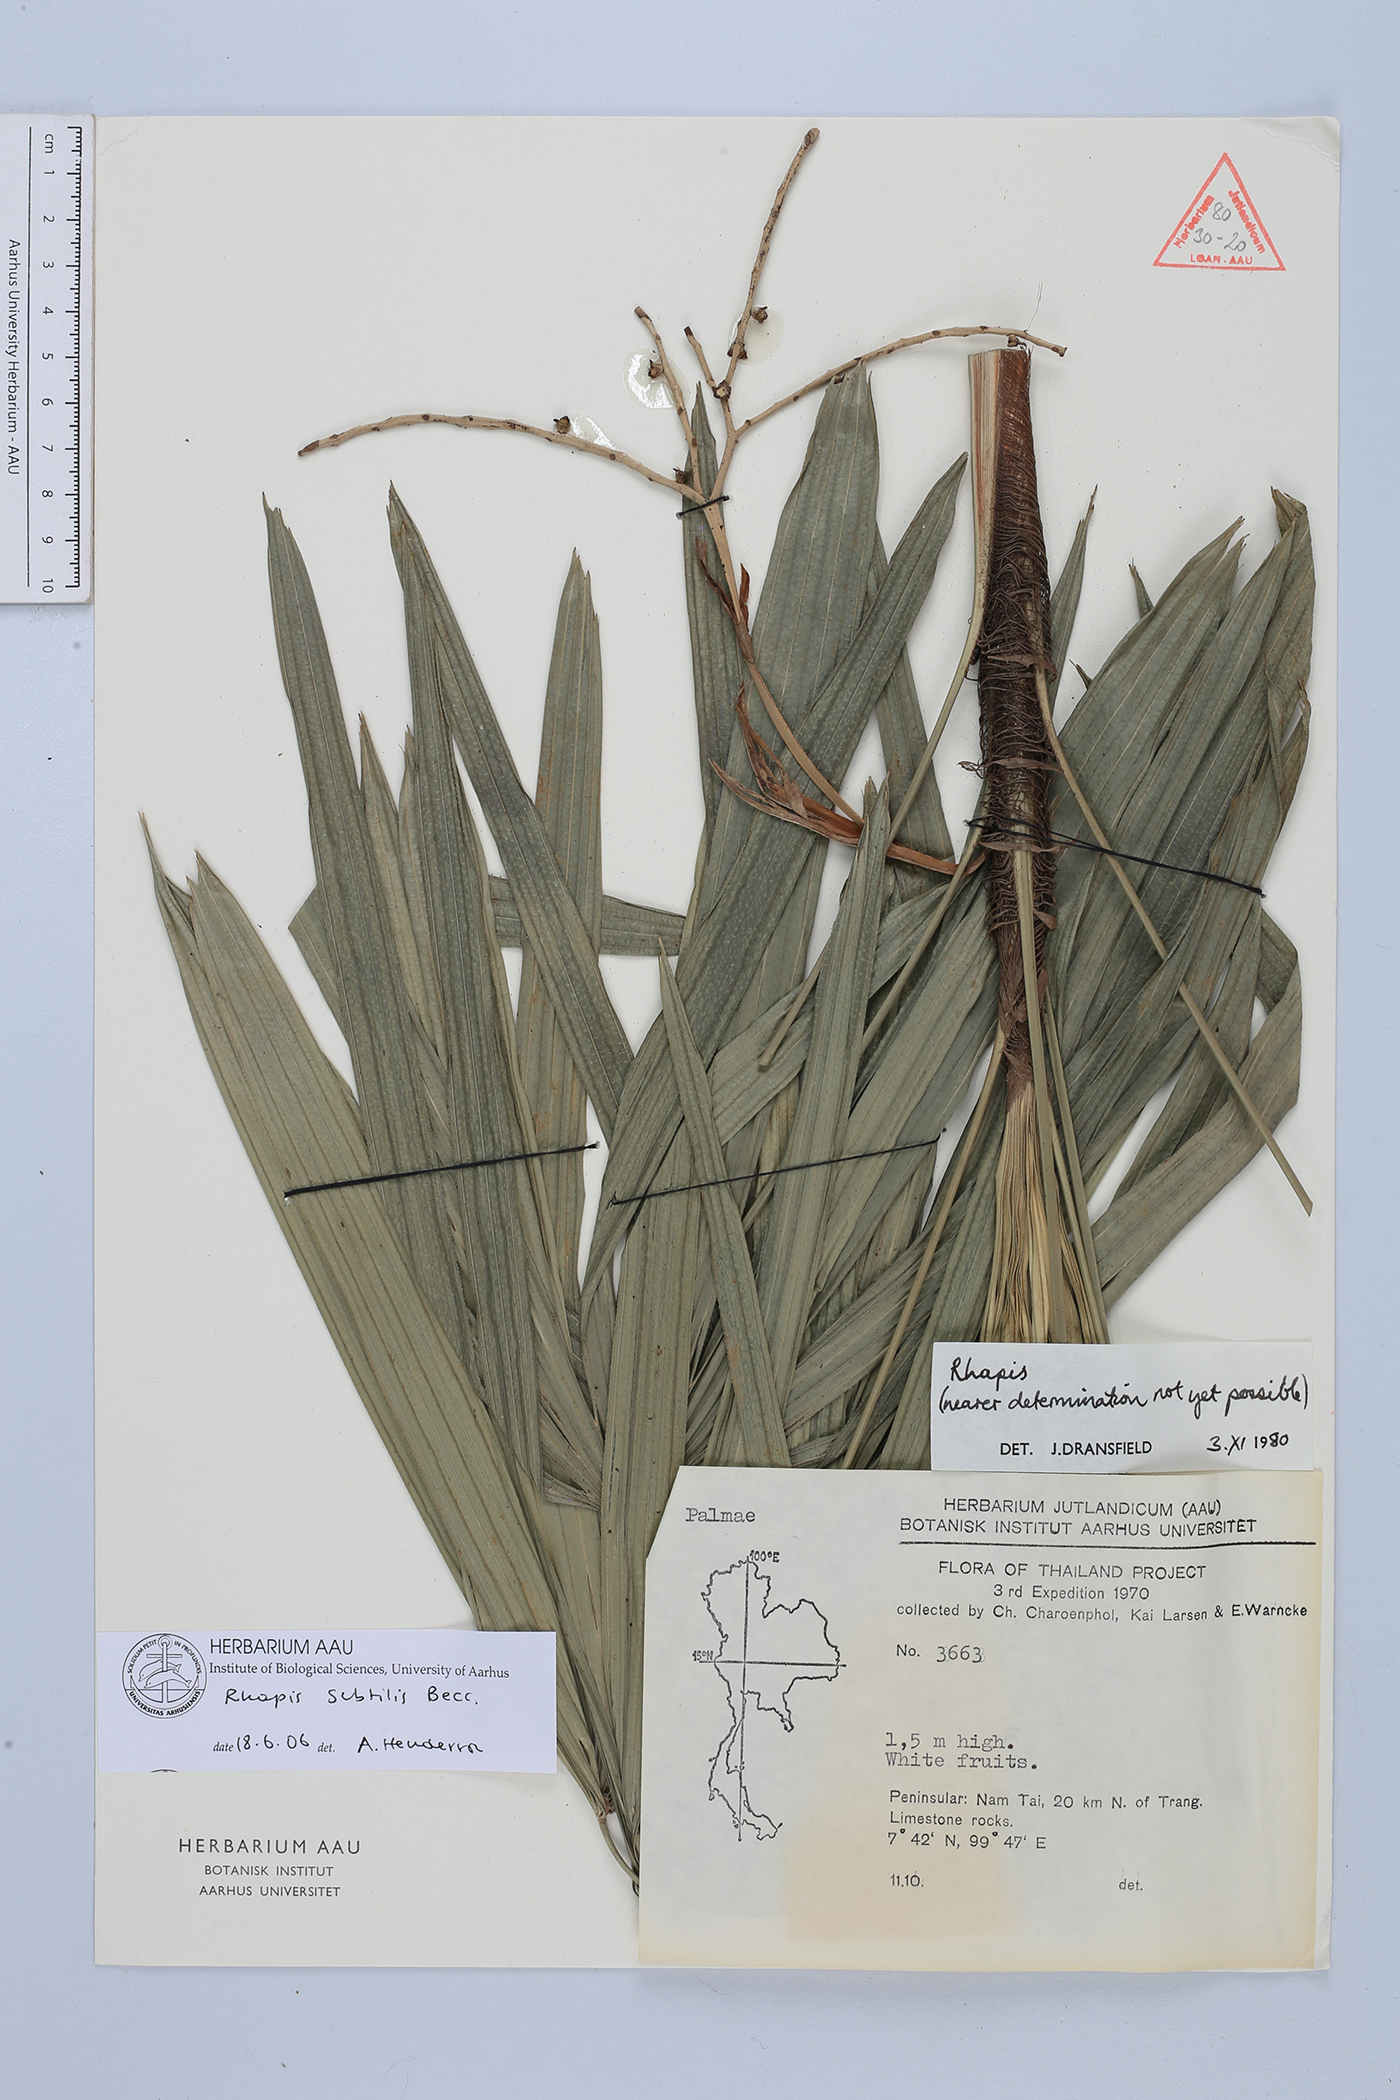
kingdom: Plantae
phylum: Tracheophyta
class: Liliopsida
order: Arecales
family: Arecaceae
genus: Rhapis
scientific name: Rhapis subtilis
